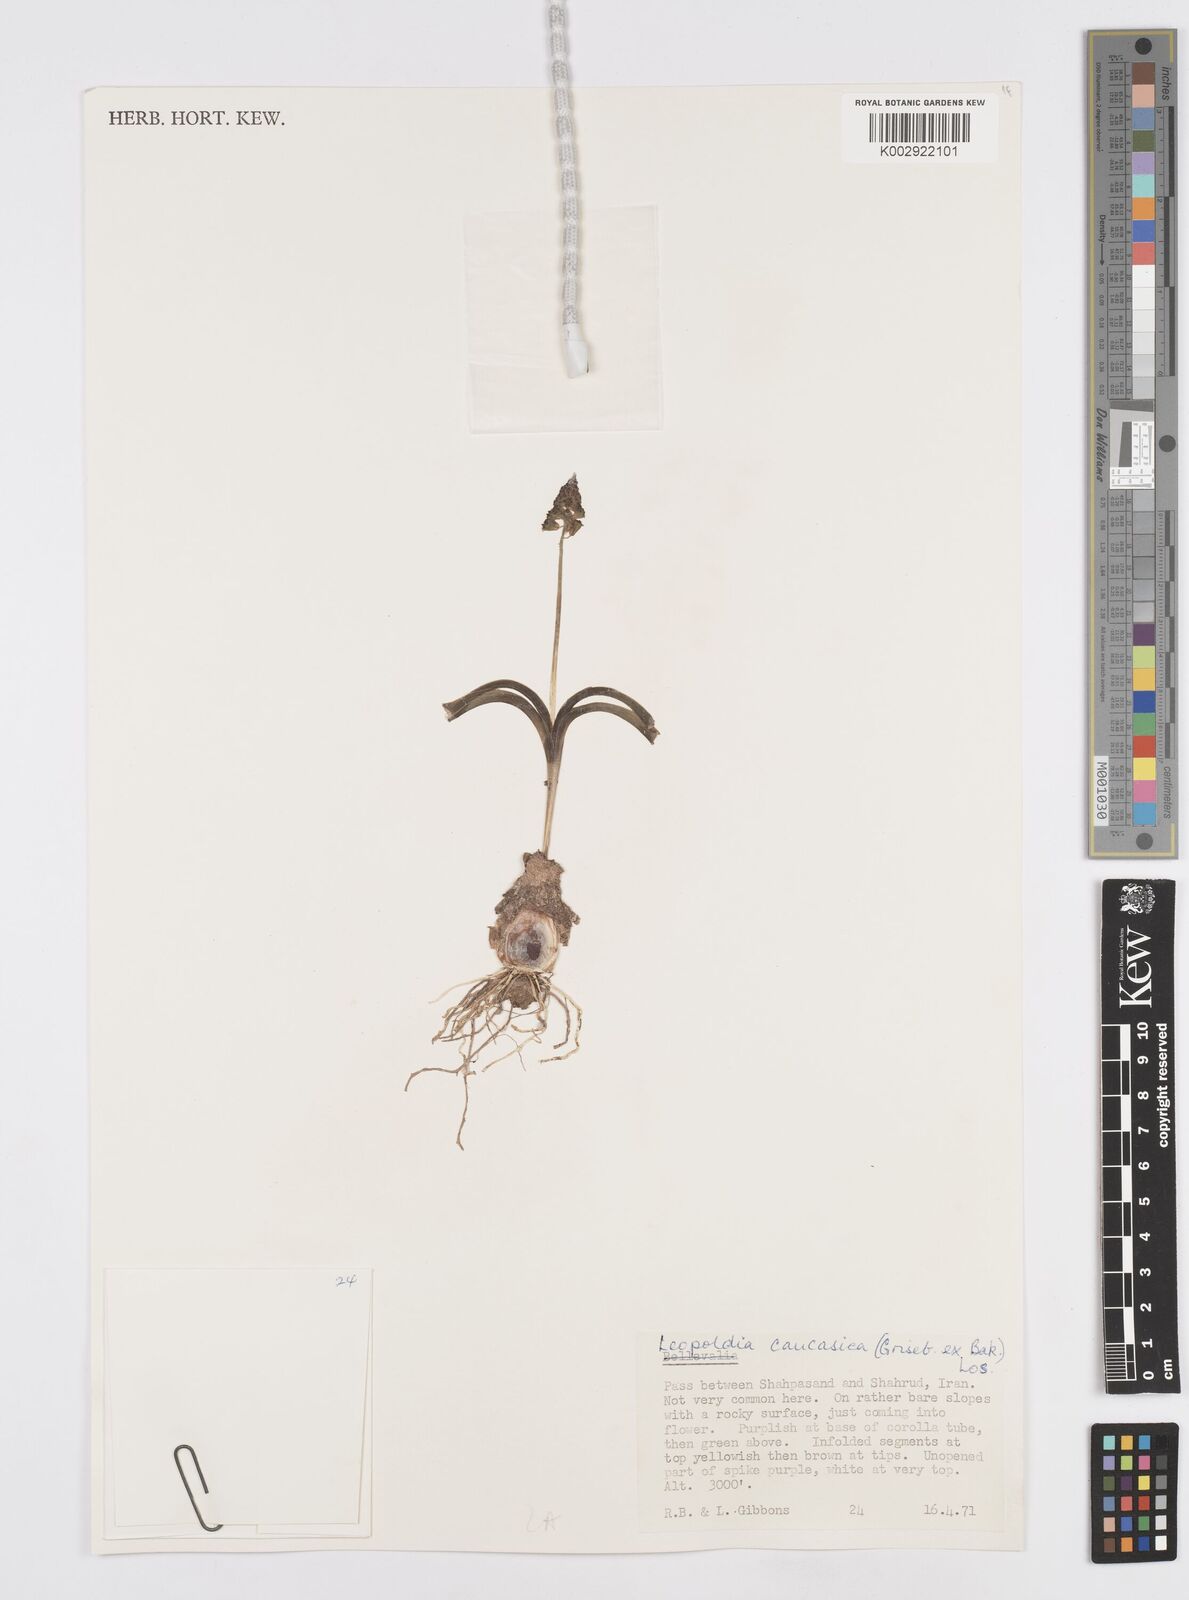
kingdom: Plantae
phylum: Tracheophyta
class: Liliopsida
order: Asparagales
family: Asparagaceae
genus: Muscari
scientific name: Muscari caucasicum
